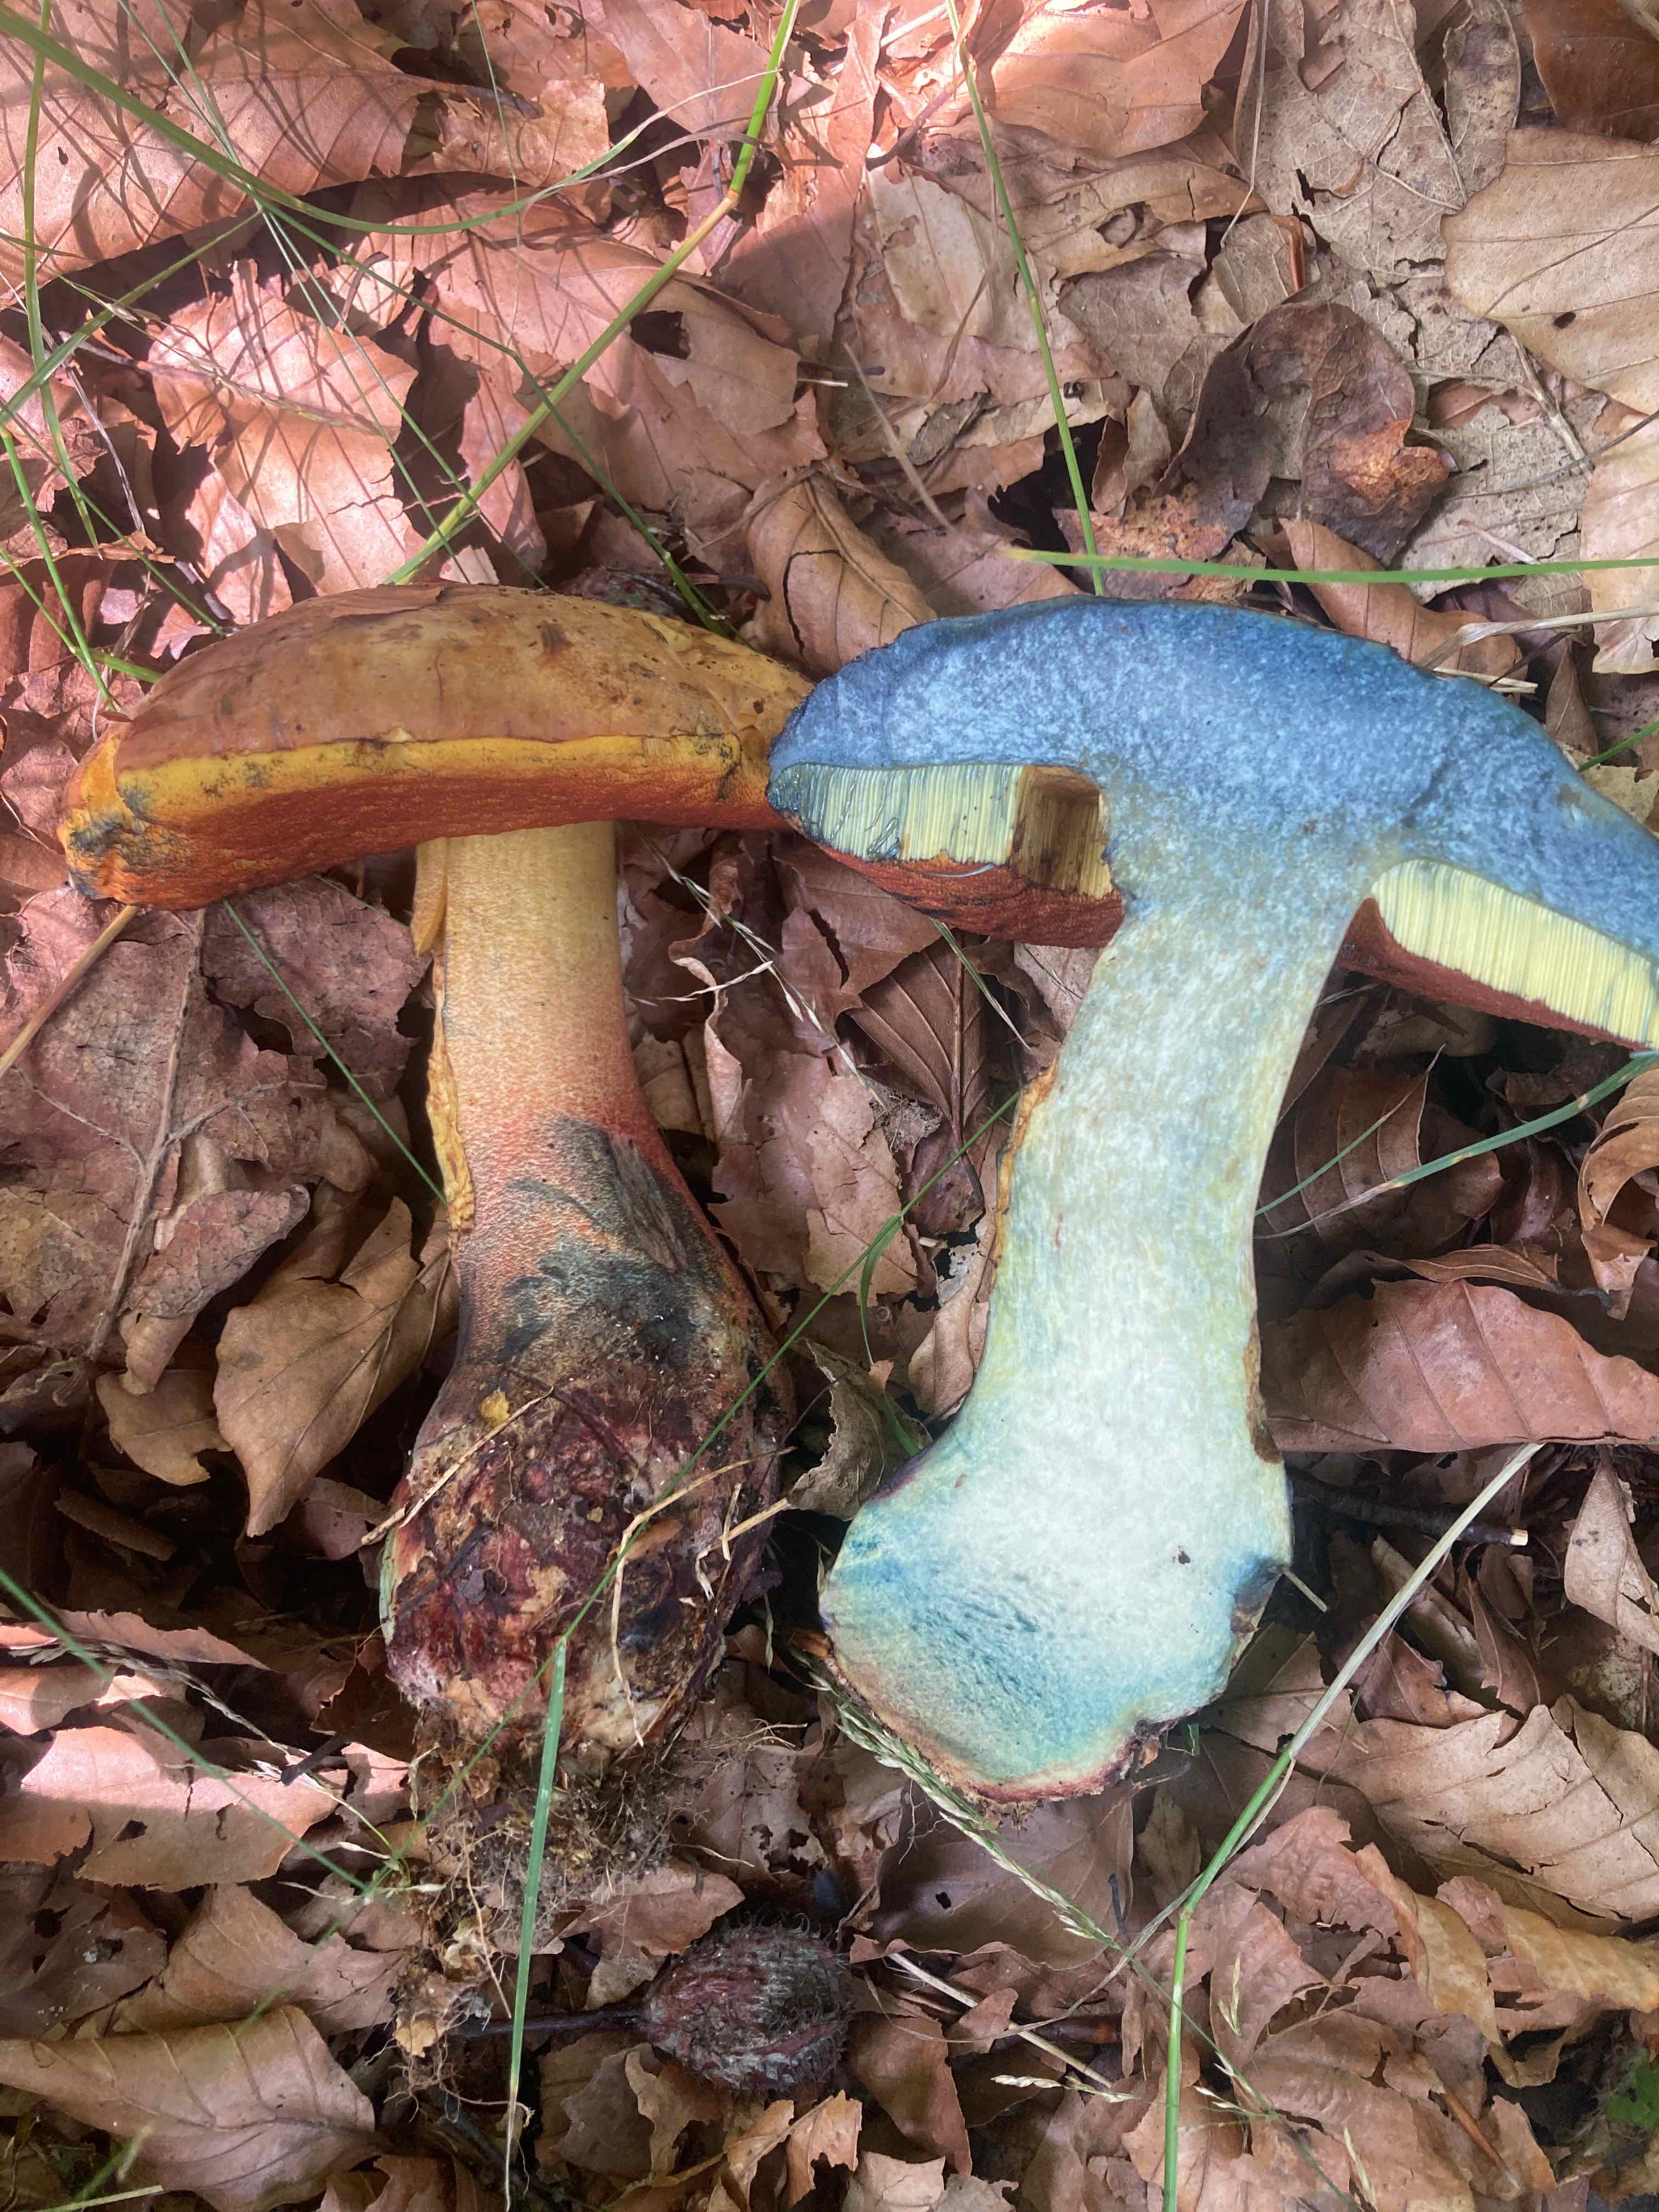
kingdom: Fungi
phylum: Basidiomycota
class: Agaricomycetes
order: Boletales
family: Boletaceae
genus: Neoboletus
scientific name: Neoboletus xanthopus
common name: finprikket indigorørhat
